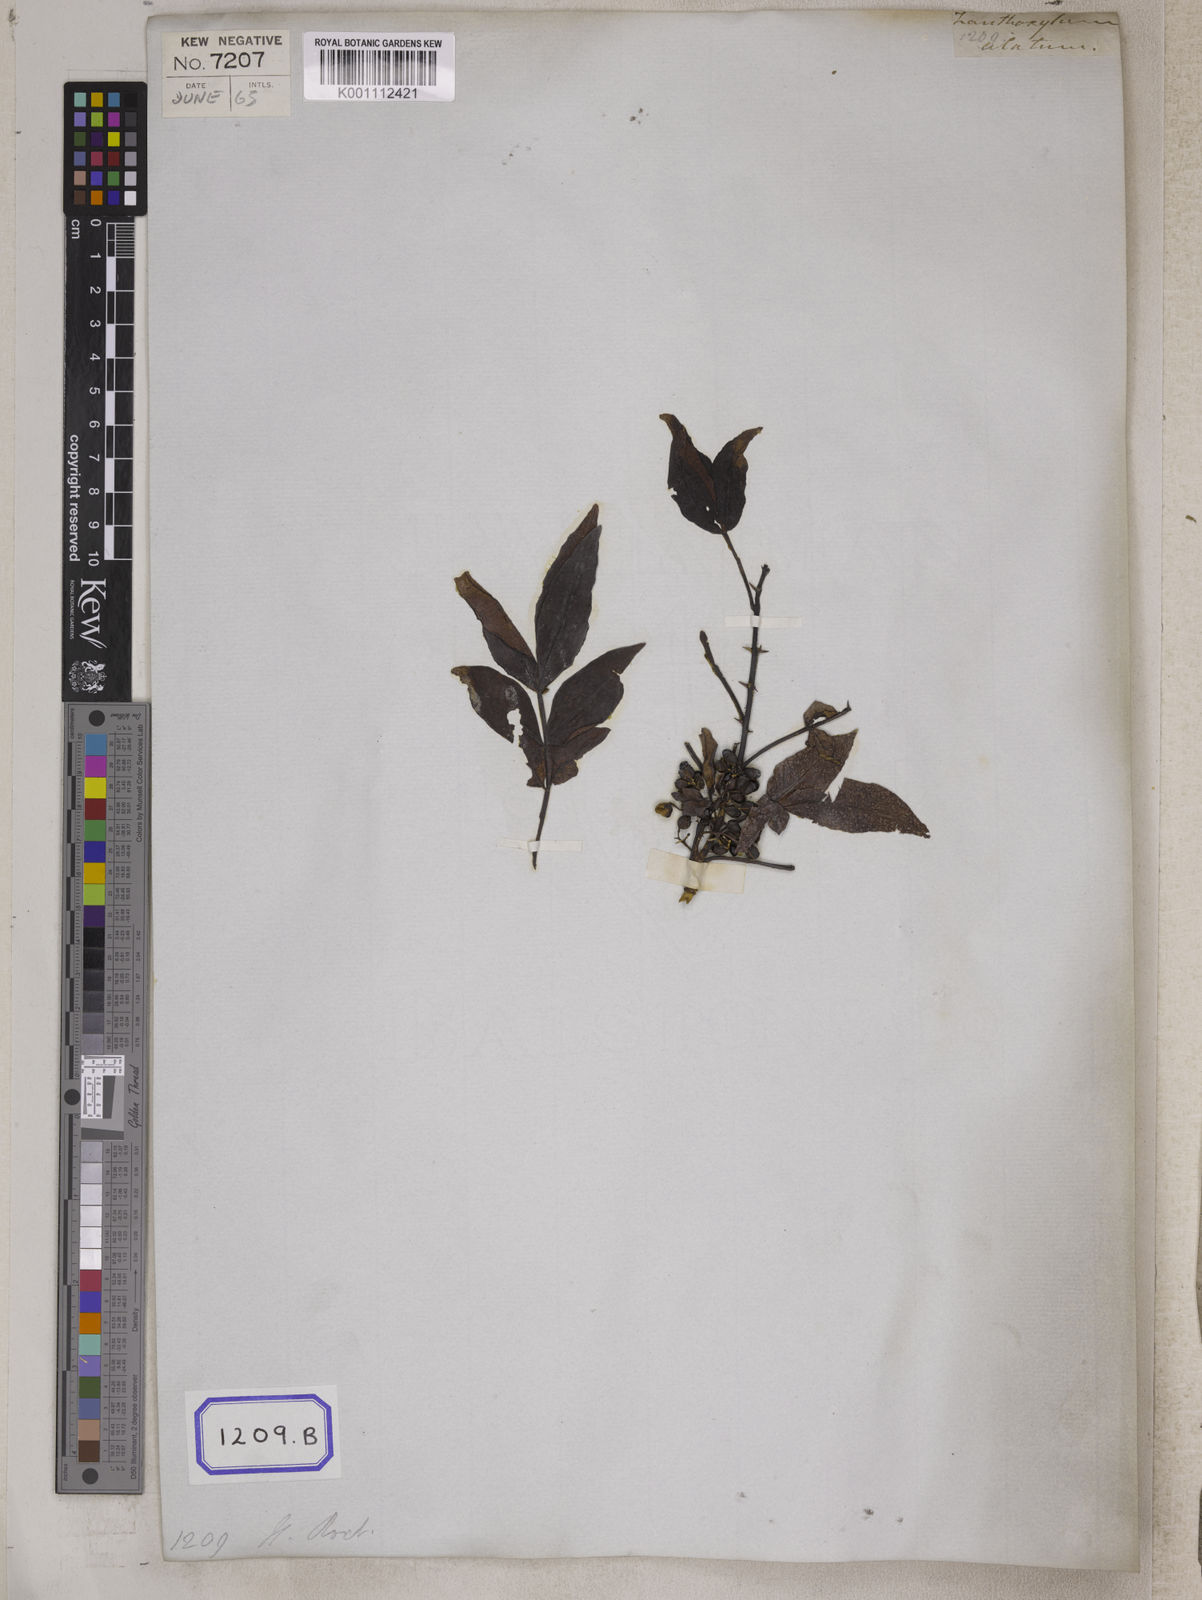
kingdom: Plantae
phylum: Tracheophyta
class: Magnoliopsida
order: Sapindales
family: Rutaceae
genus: Zanthoxylum
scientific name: Zanthoxylum armatum
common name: Winged prickly-ash
